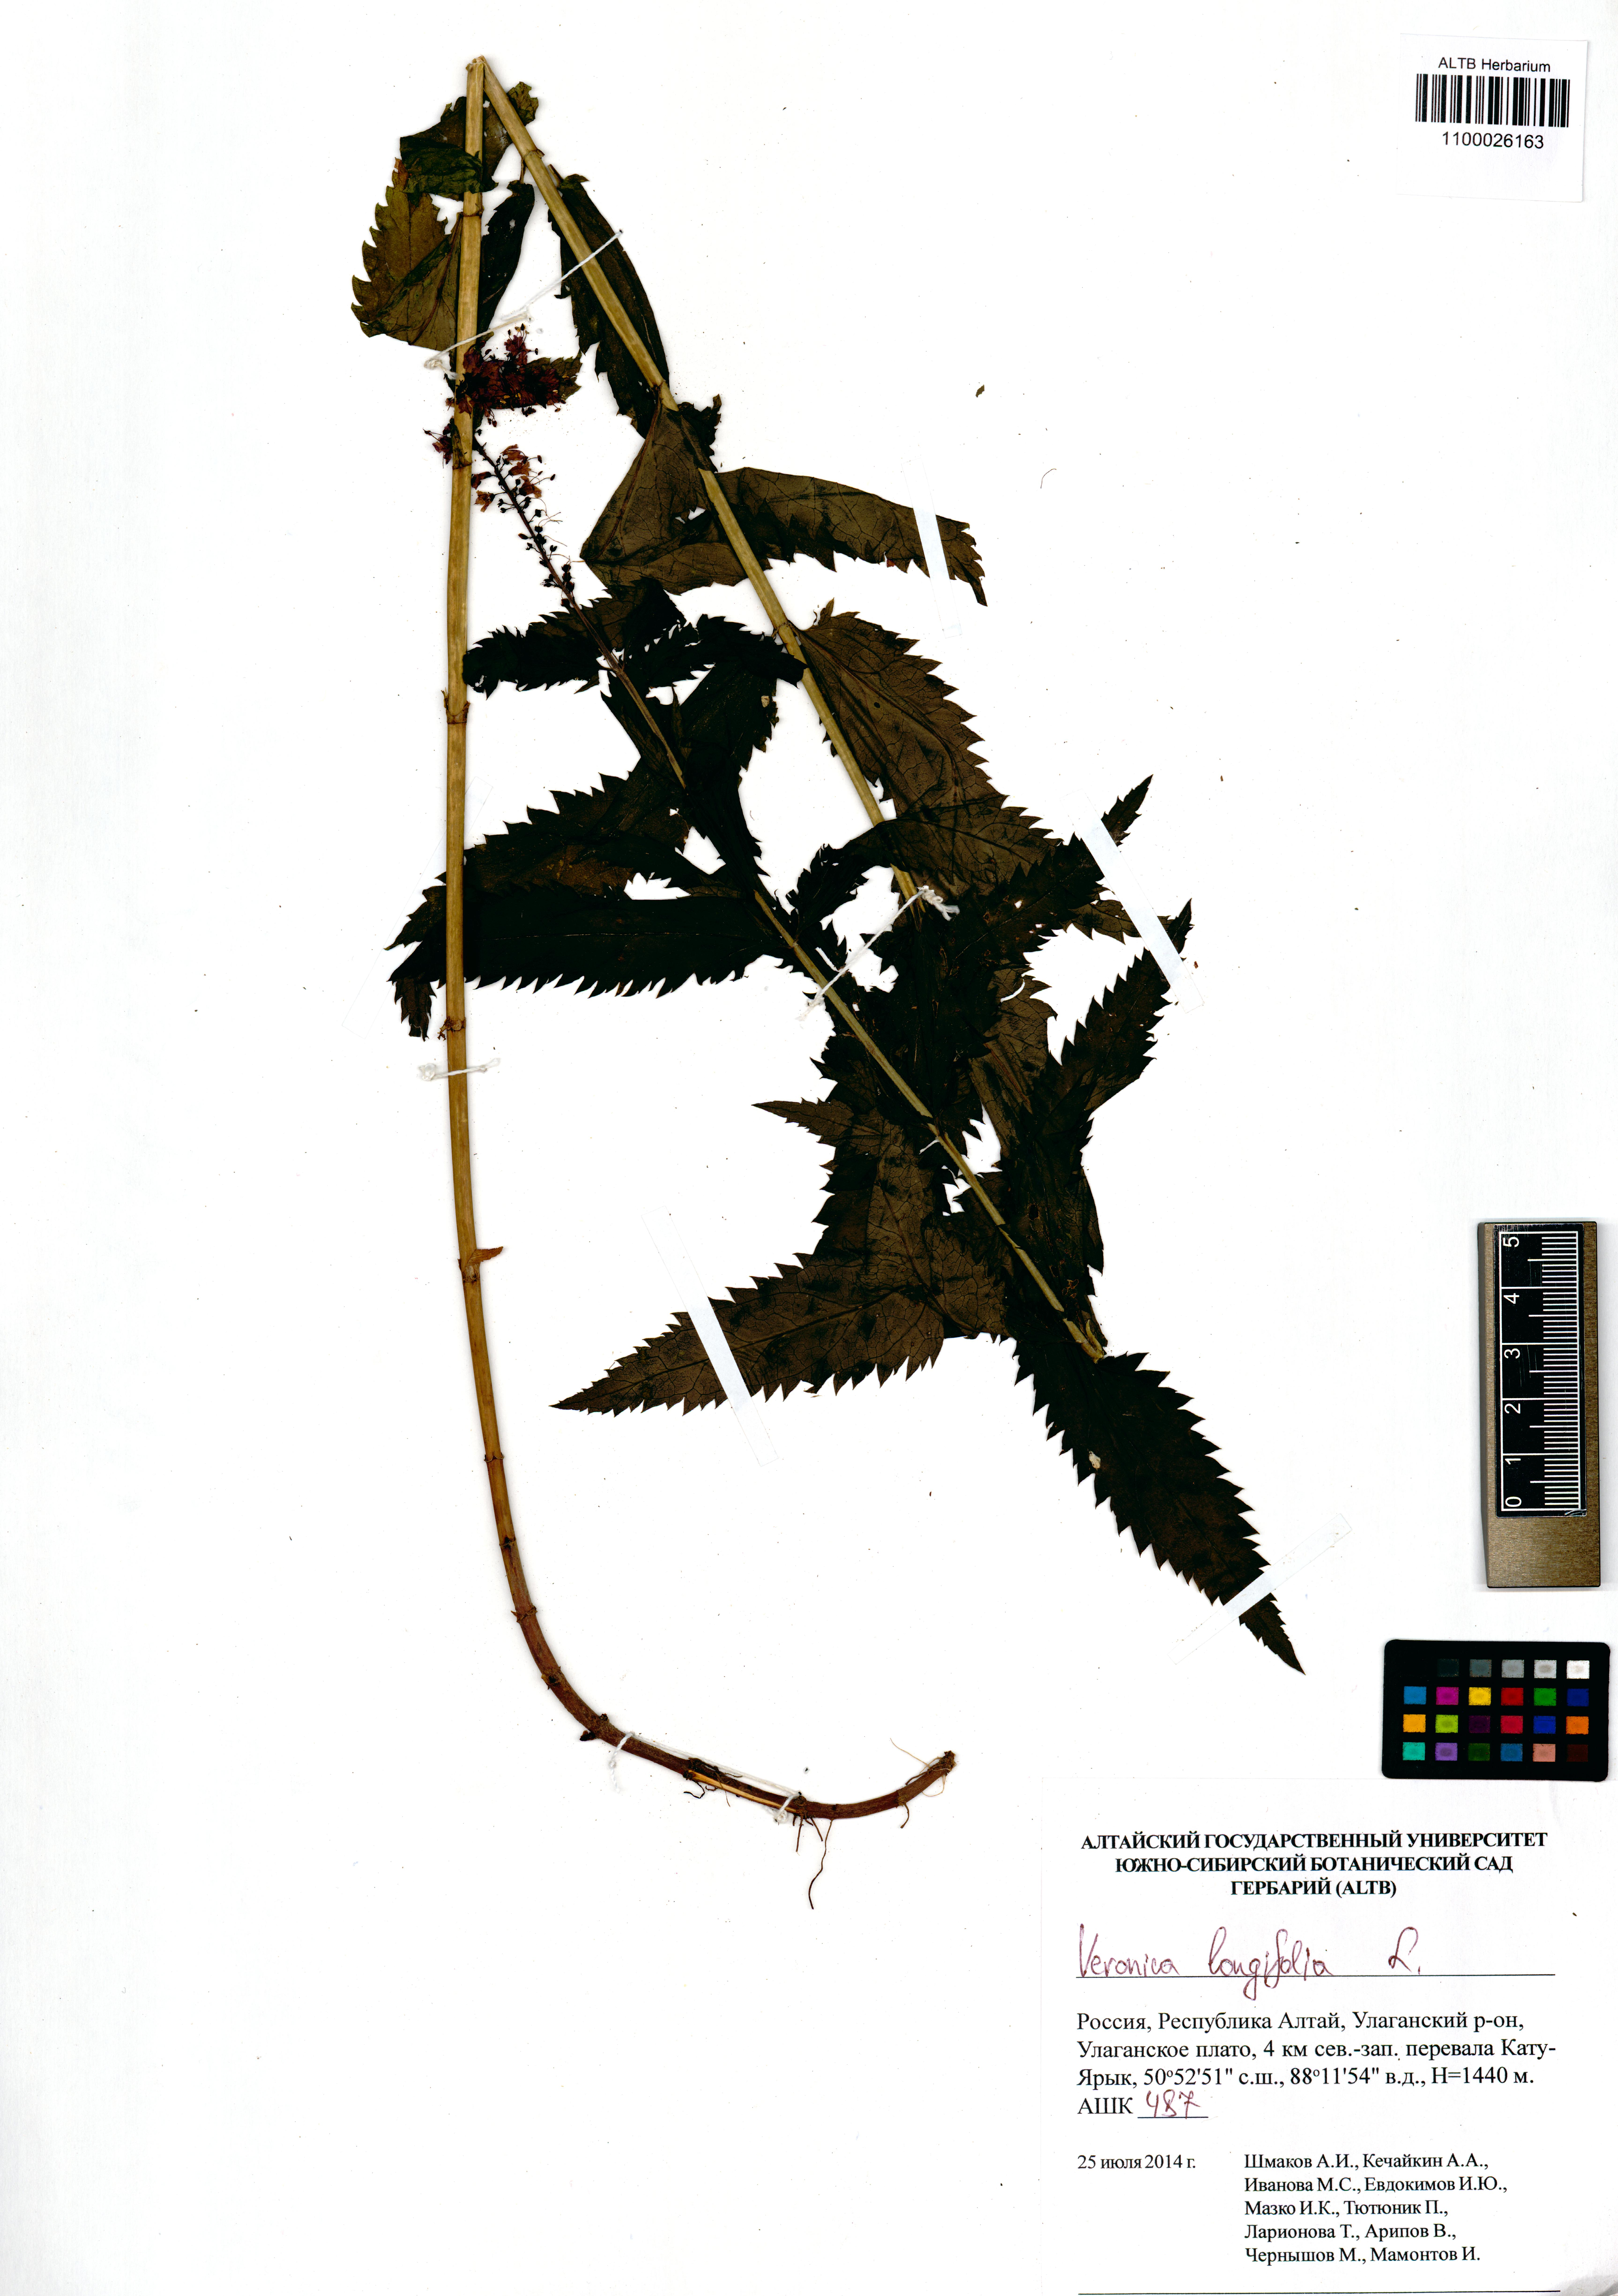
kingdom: Plantae
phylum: Tracheophyta
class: Magnoliopsida
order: Lamiales
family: Plantaginaceae
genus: Veronica
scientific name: Veronica longifolia
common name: Garden speedwell
